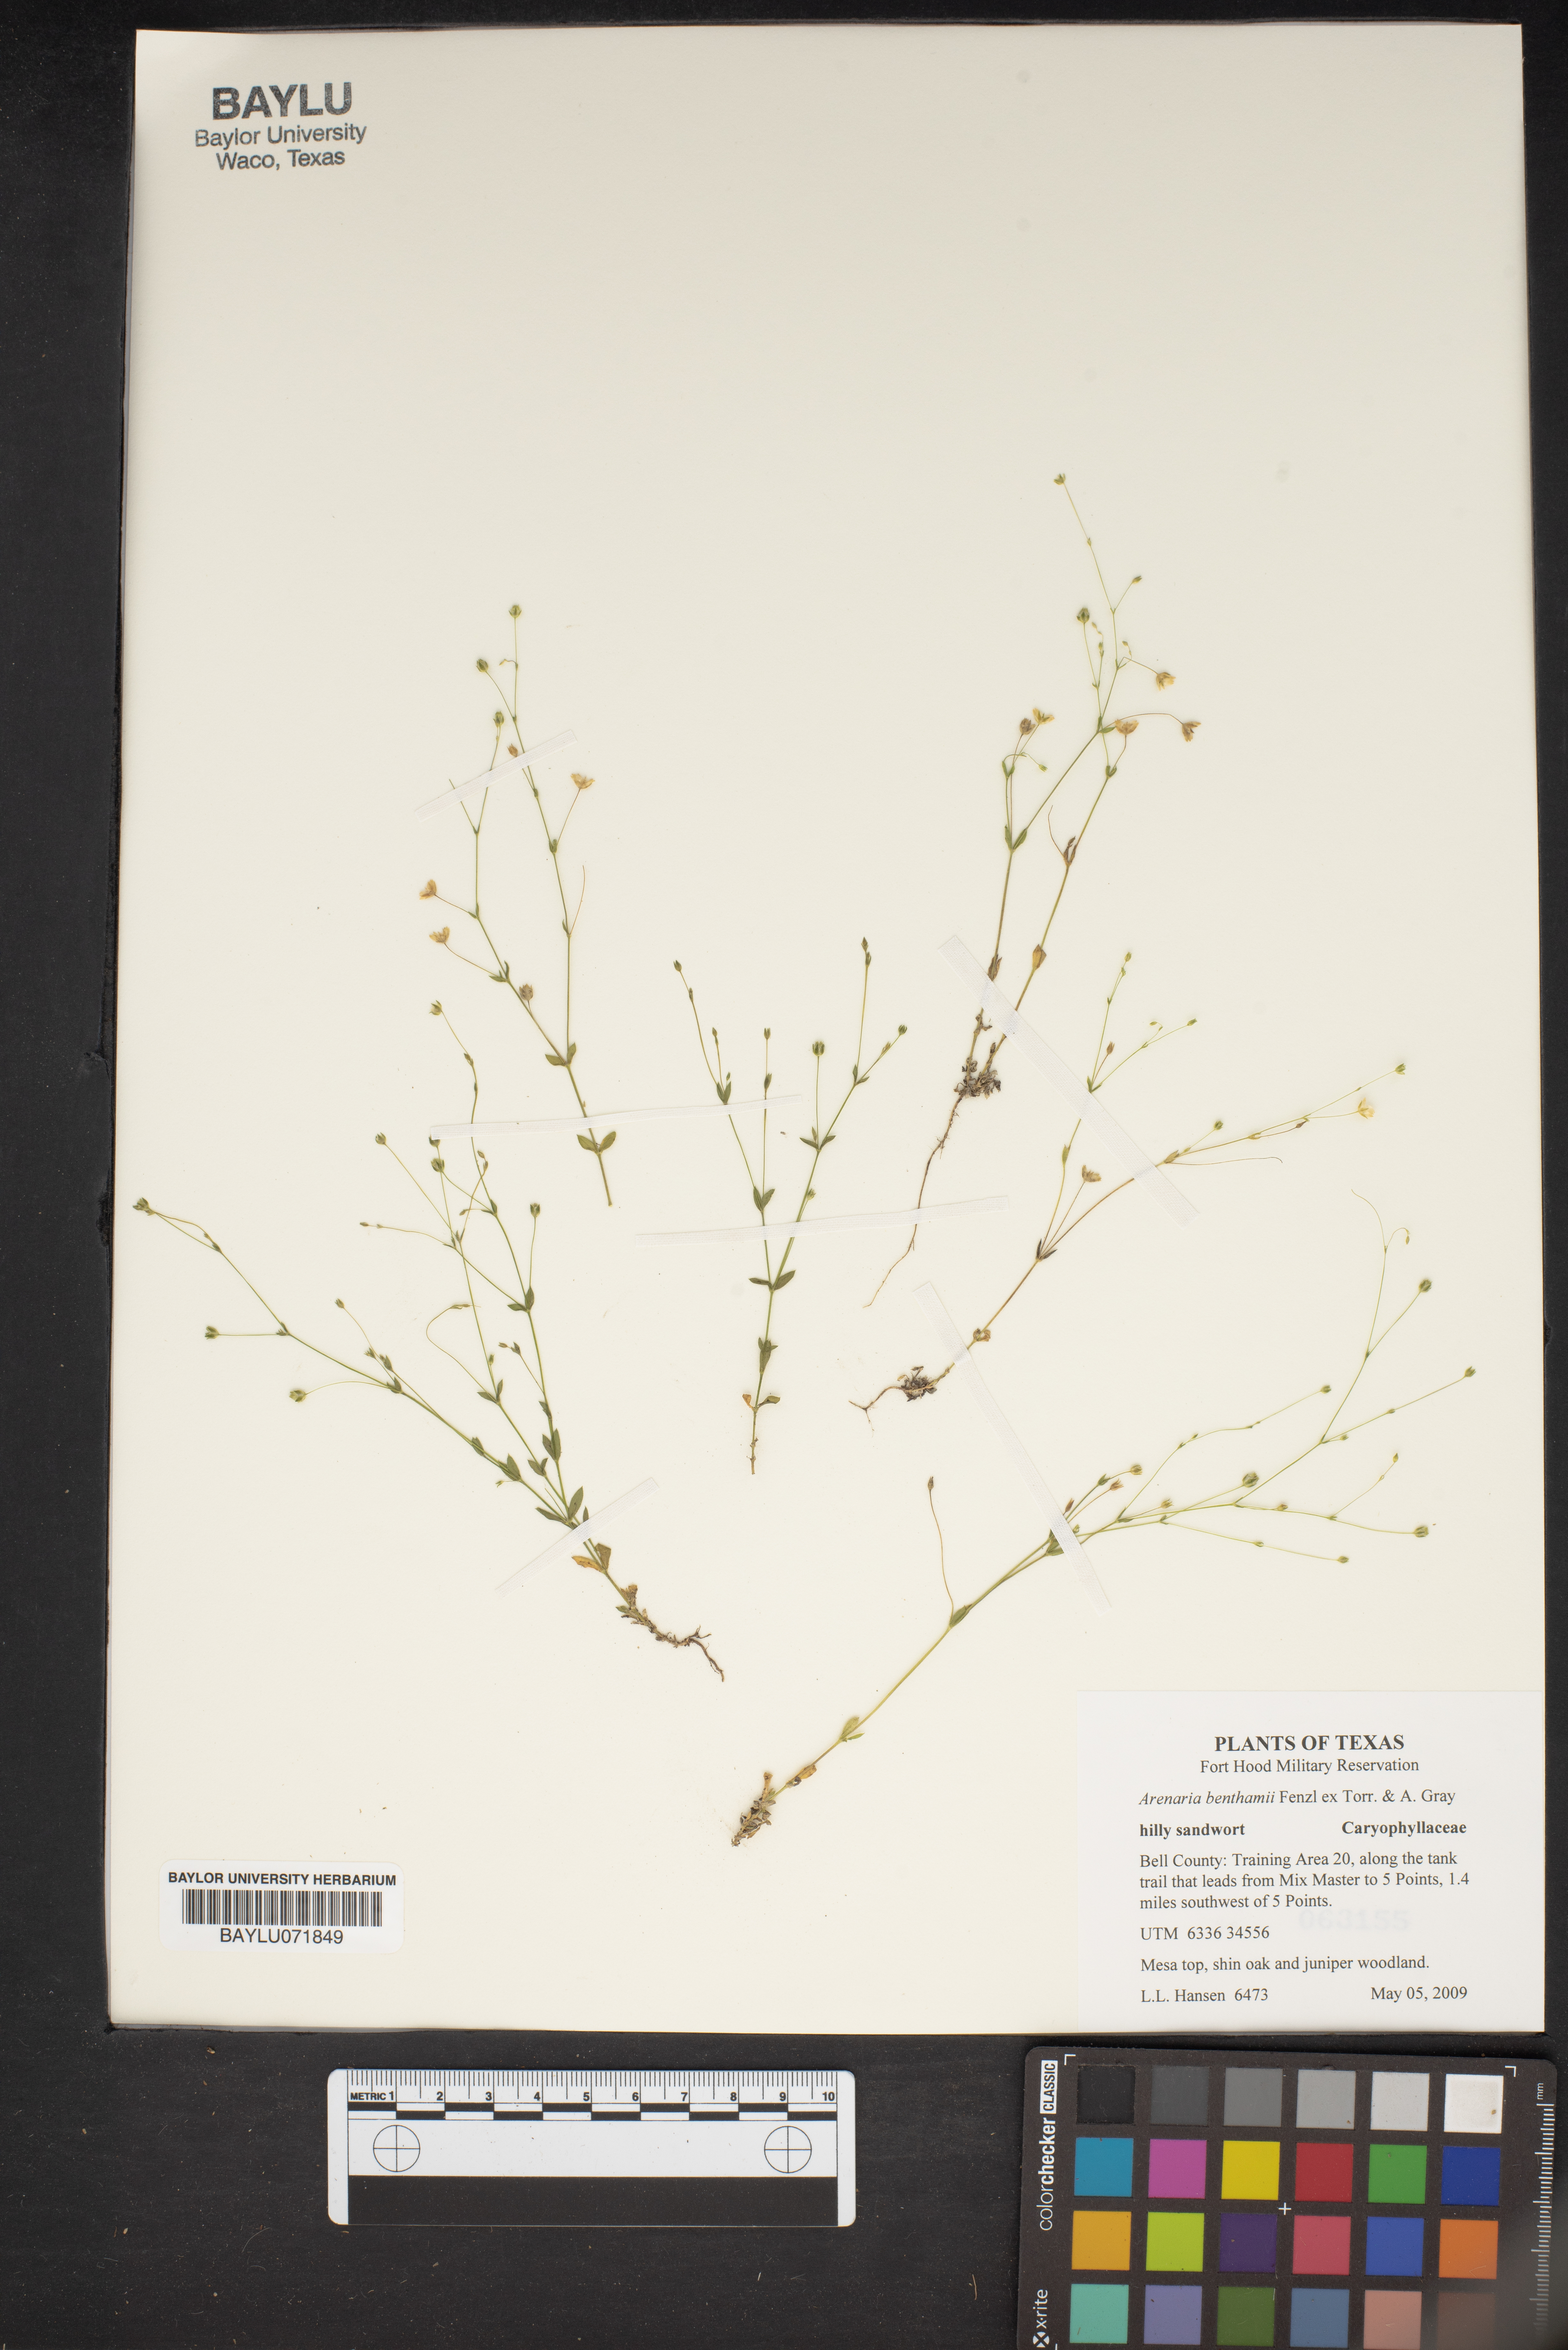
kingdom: Plantae
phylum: Tracheophyta
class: Magnoliopsida
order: Caryophyllales
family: Caryophyllaceae
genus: Arenaria
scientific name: Arenaria benthamii
